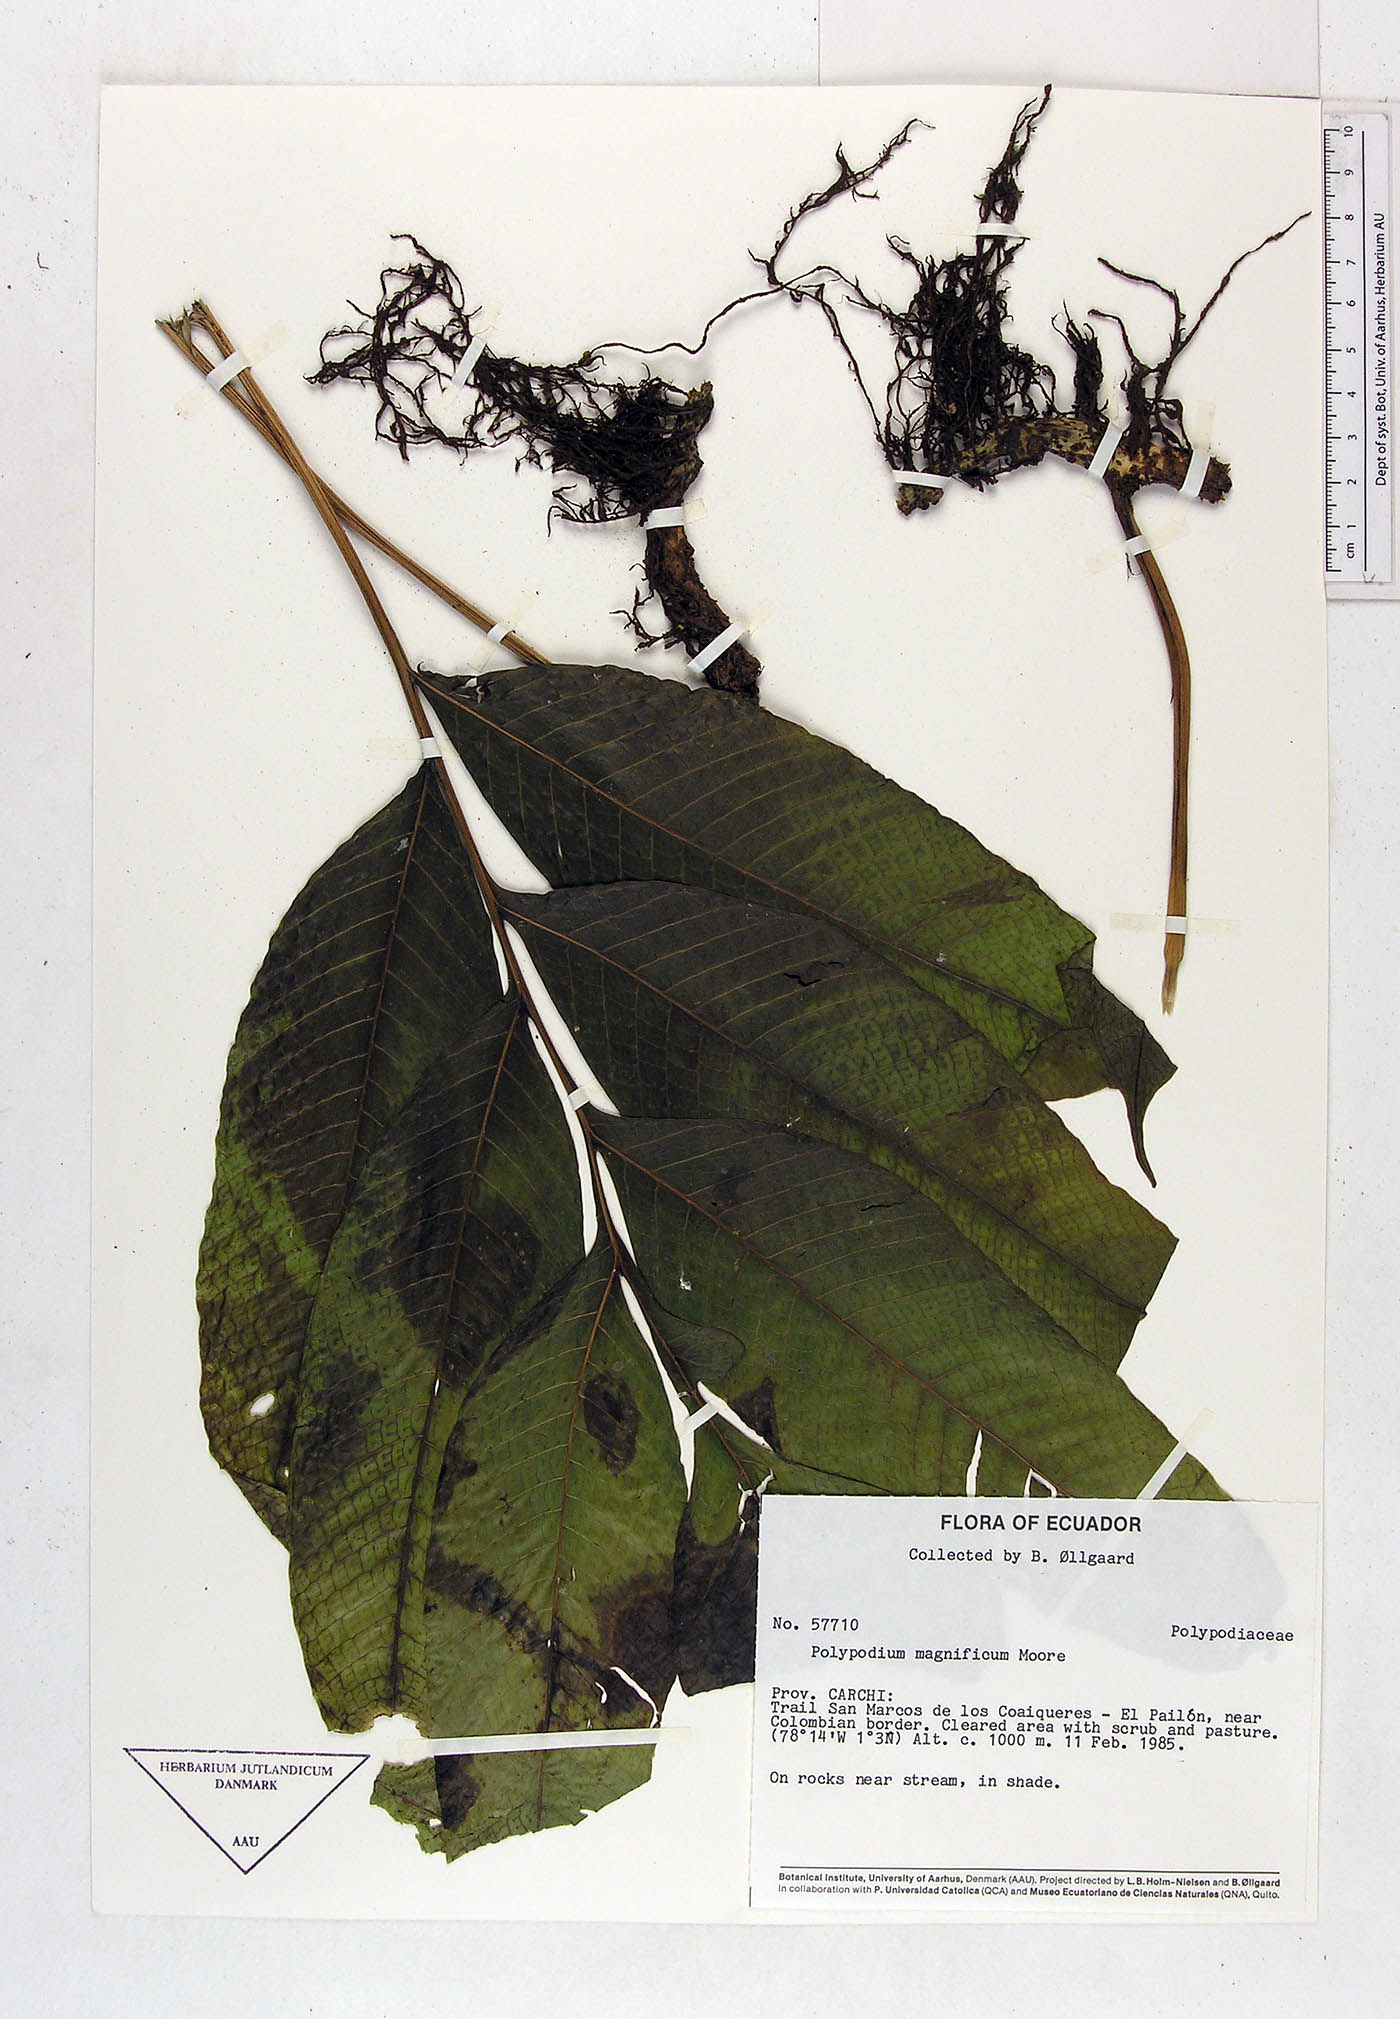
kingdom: Plantae
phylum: Tracheophyta
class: Polypodiopsida
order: Polypodiales
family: Polypodiaceae
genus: Campyloneurum
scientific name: Campyloneurum magnificum
